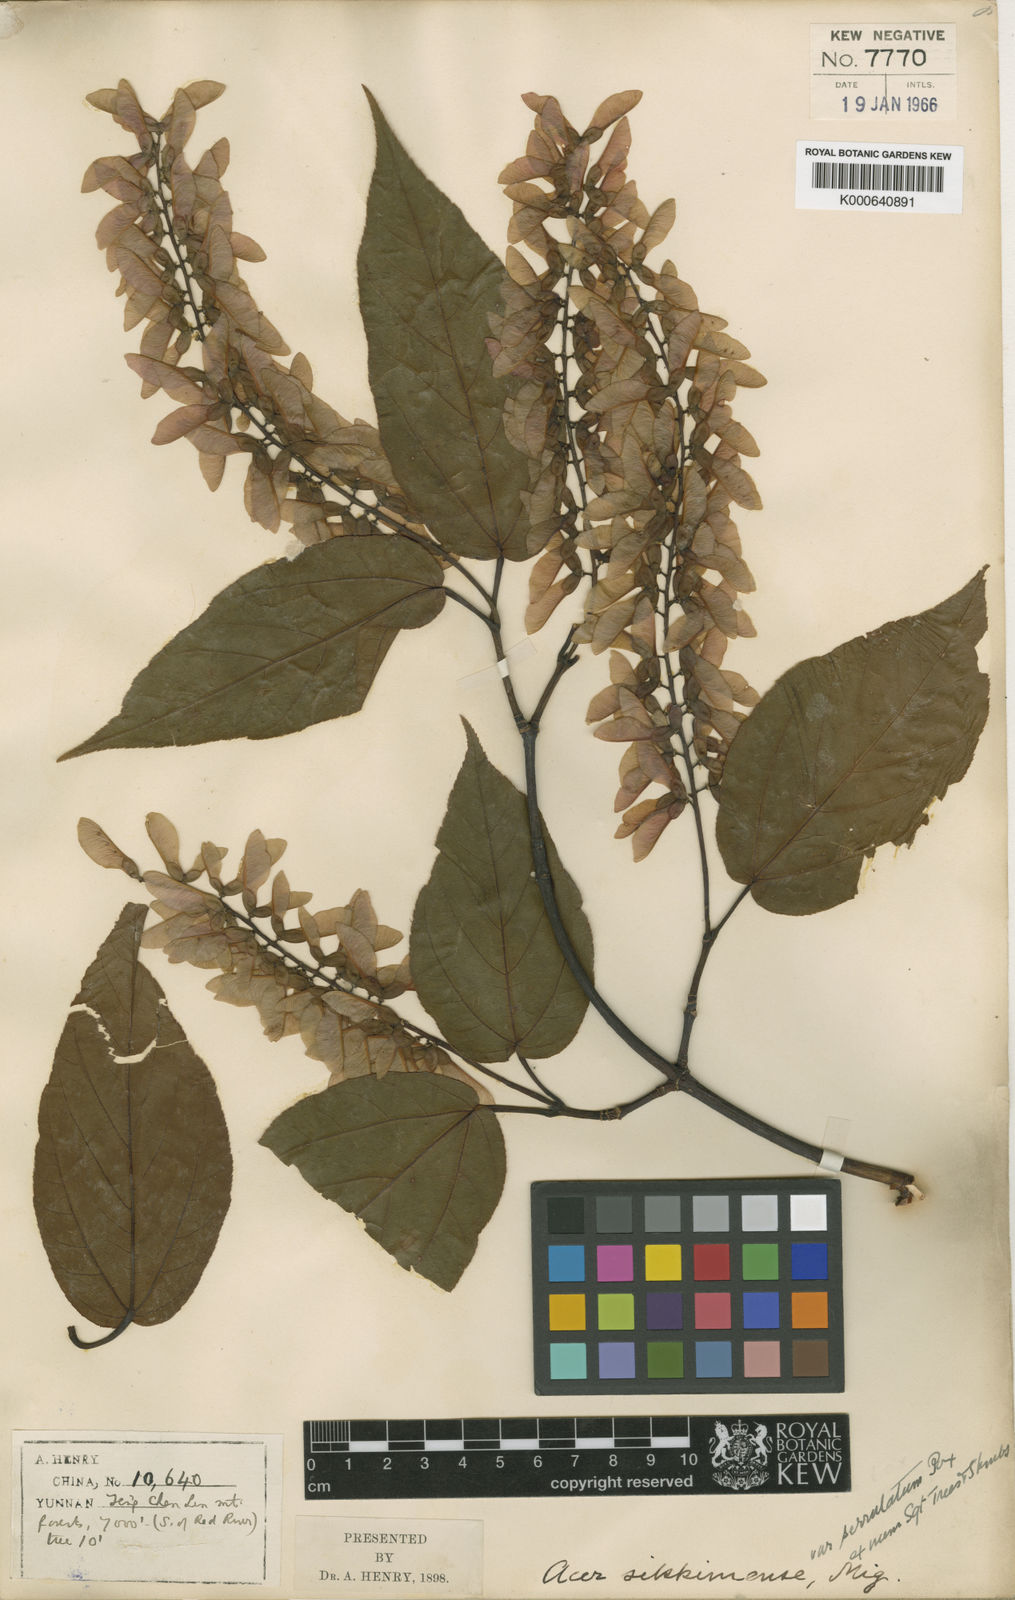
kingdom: Plantae
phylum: Tracheophyta
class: Magnoliopsida
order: Sapindales
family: Sapindaceae
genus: Acer
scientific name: Acer sikkimense
